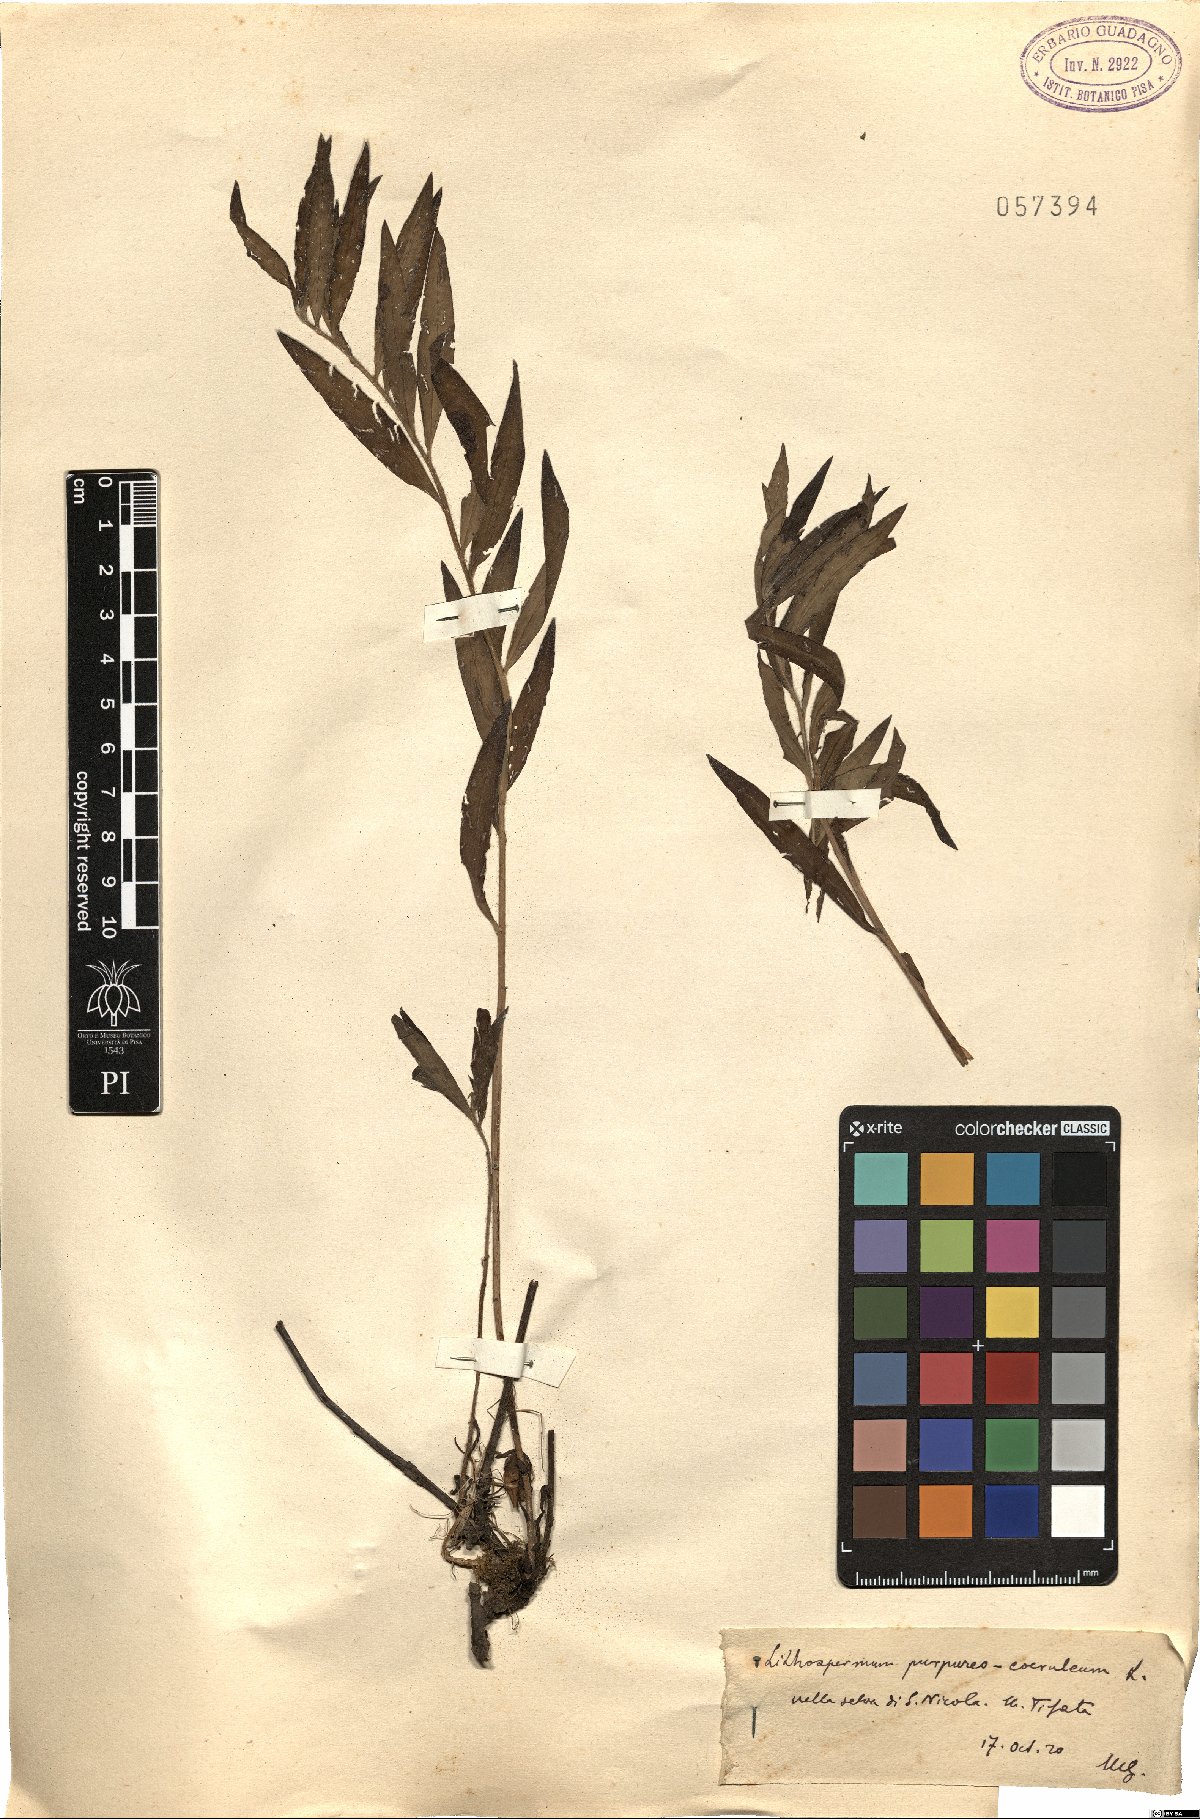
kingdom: Plantae
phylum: Tracheophyta
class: Magnoliopsida
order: Boraginales
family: Boraginaceae
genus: Aegonychon
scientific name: Aegonychon purpurocaeruleum
